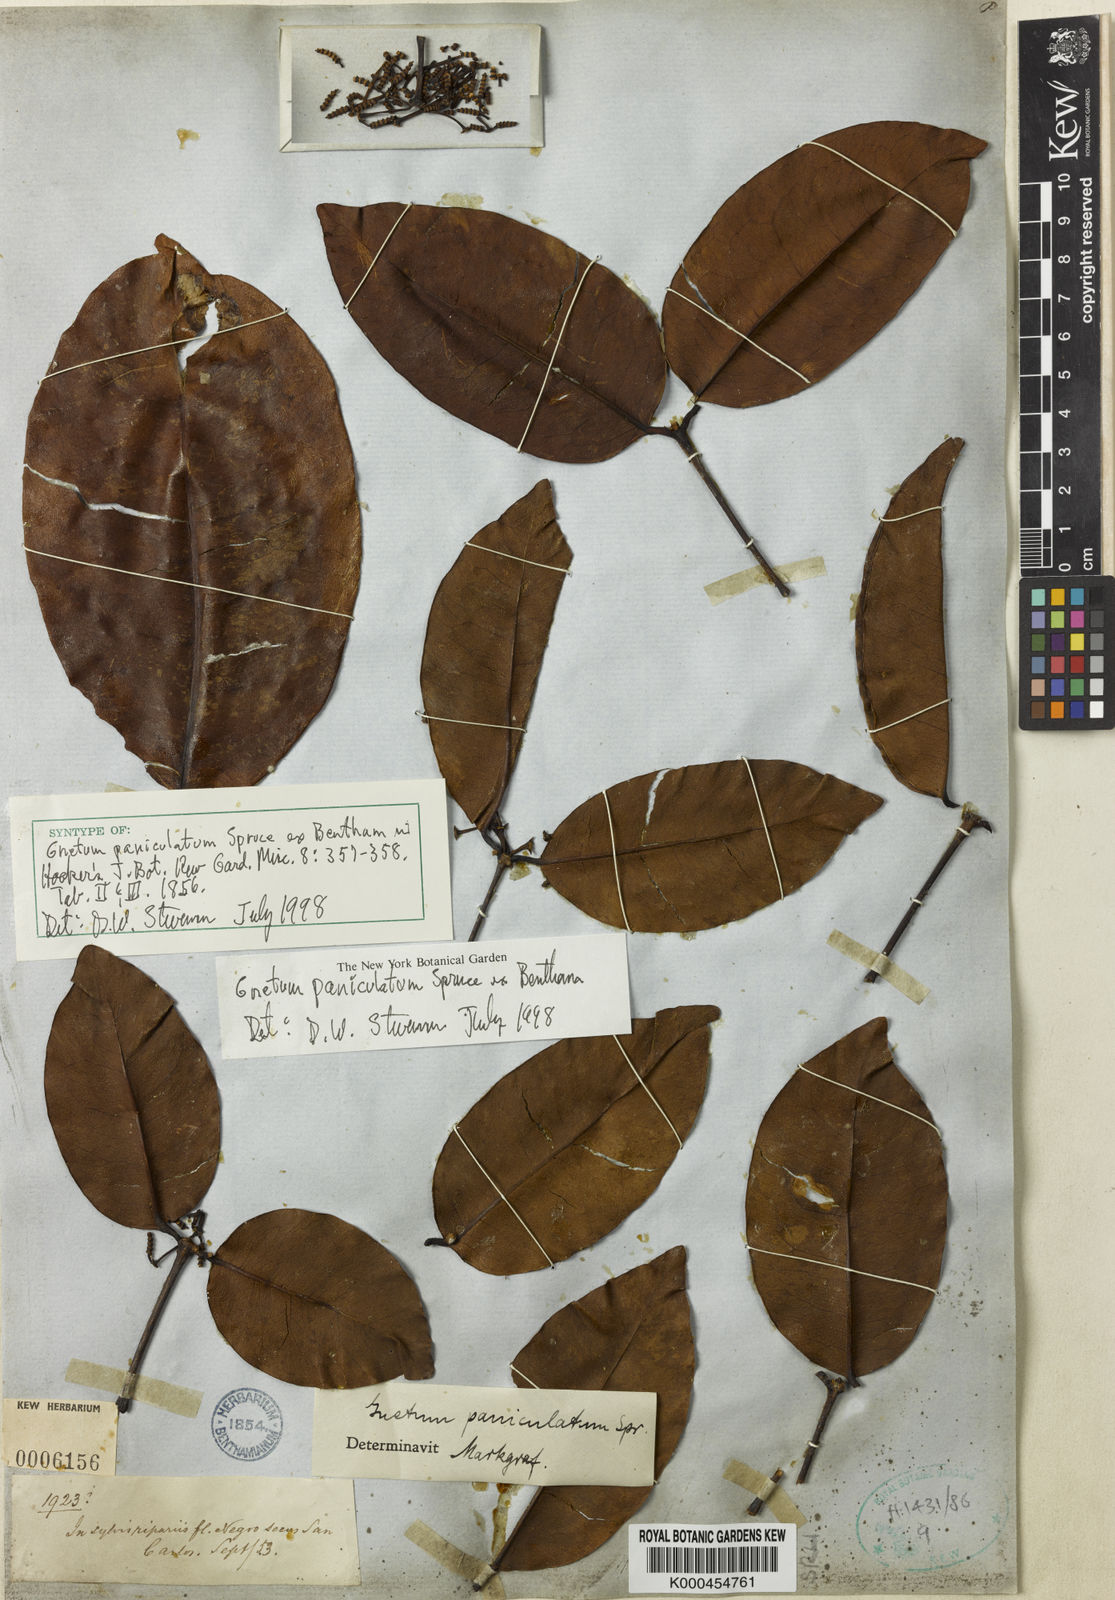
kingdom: Plantae
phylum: Tracheophyta
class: Gnetopsida
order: Gnetales
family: Gnetaceae
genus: Gnetum
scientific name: Gnetum paniculatum
